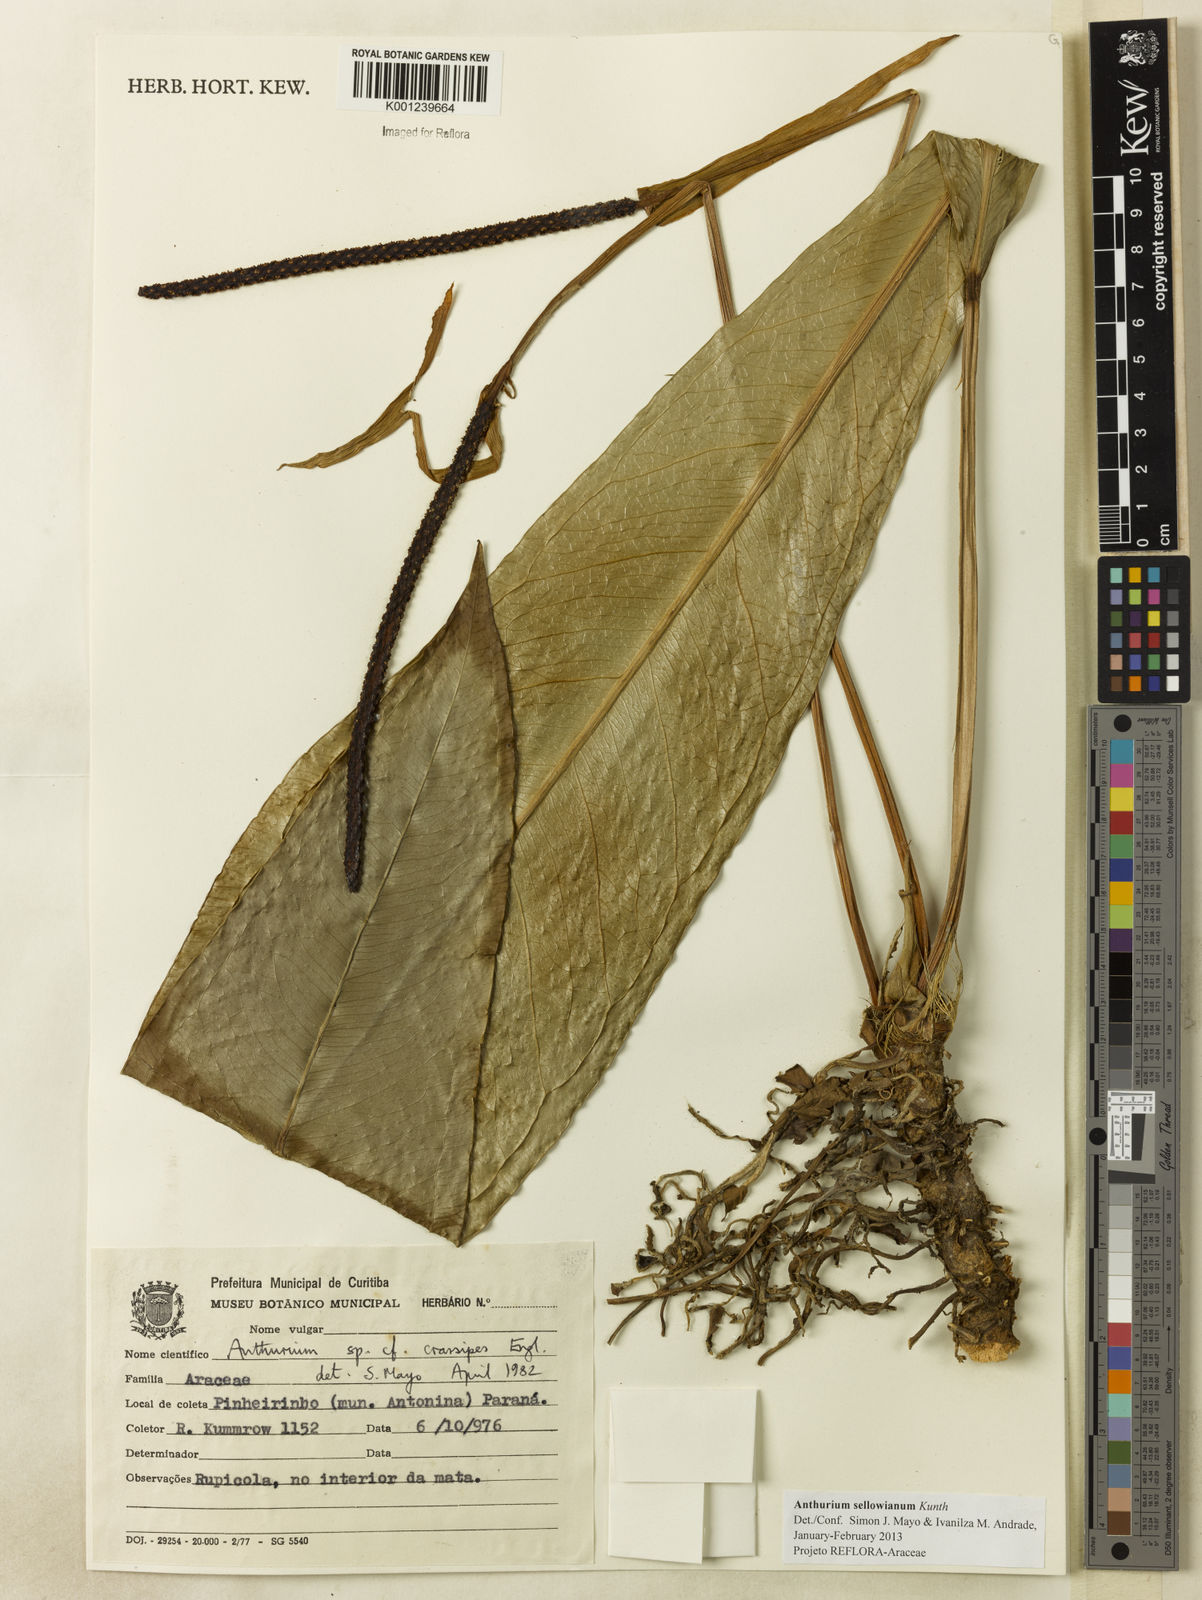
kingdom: Plantae
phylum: Tracheophyta
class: Liliopsida
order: Alismatales
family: Araceae
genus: Anthurium
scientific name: Anthurium sellowianum
